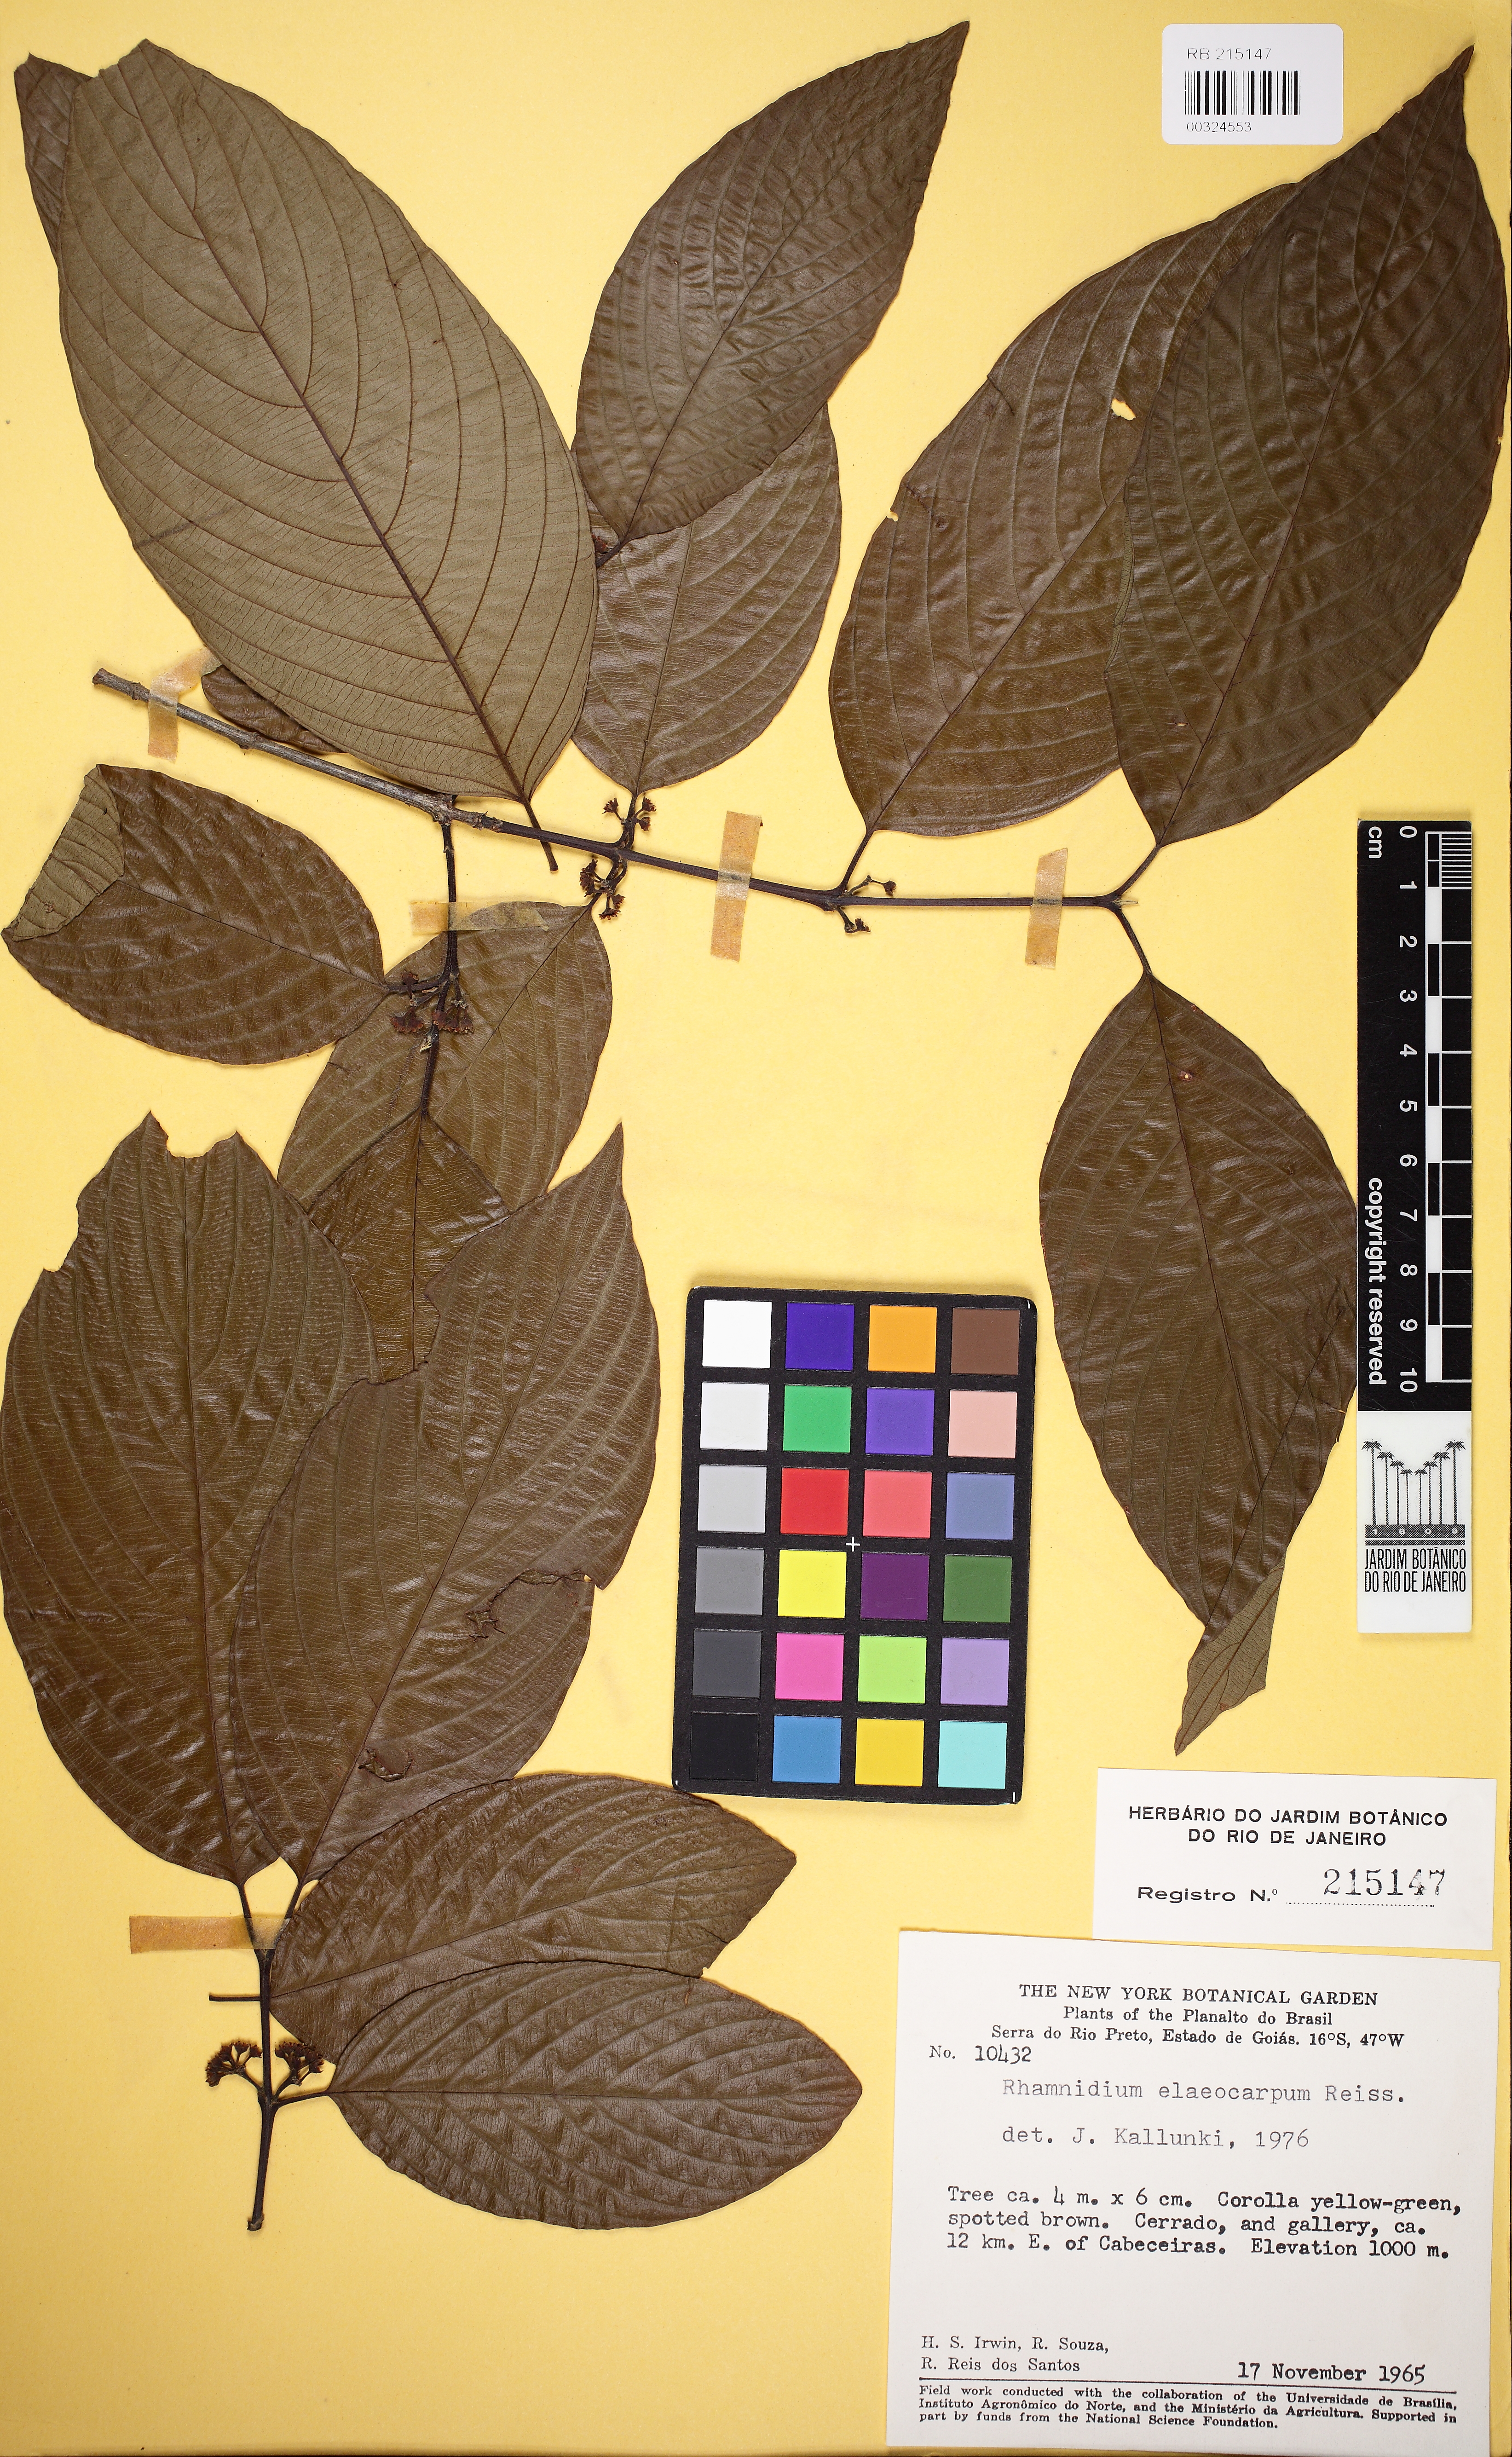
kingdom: Plantae
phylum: Tracheophyta
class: Magnoliopsida
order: Rosales
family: Rhamnaceae
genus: Rhamnidium
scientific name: Rhamnidium elaeocarpum
